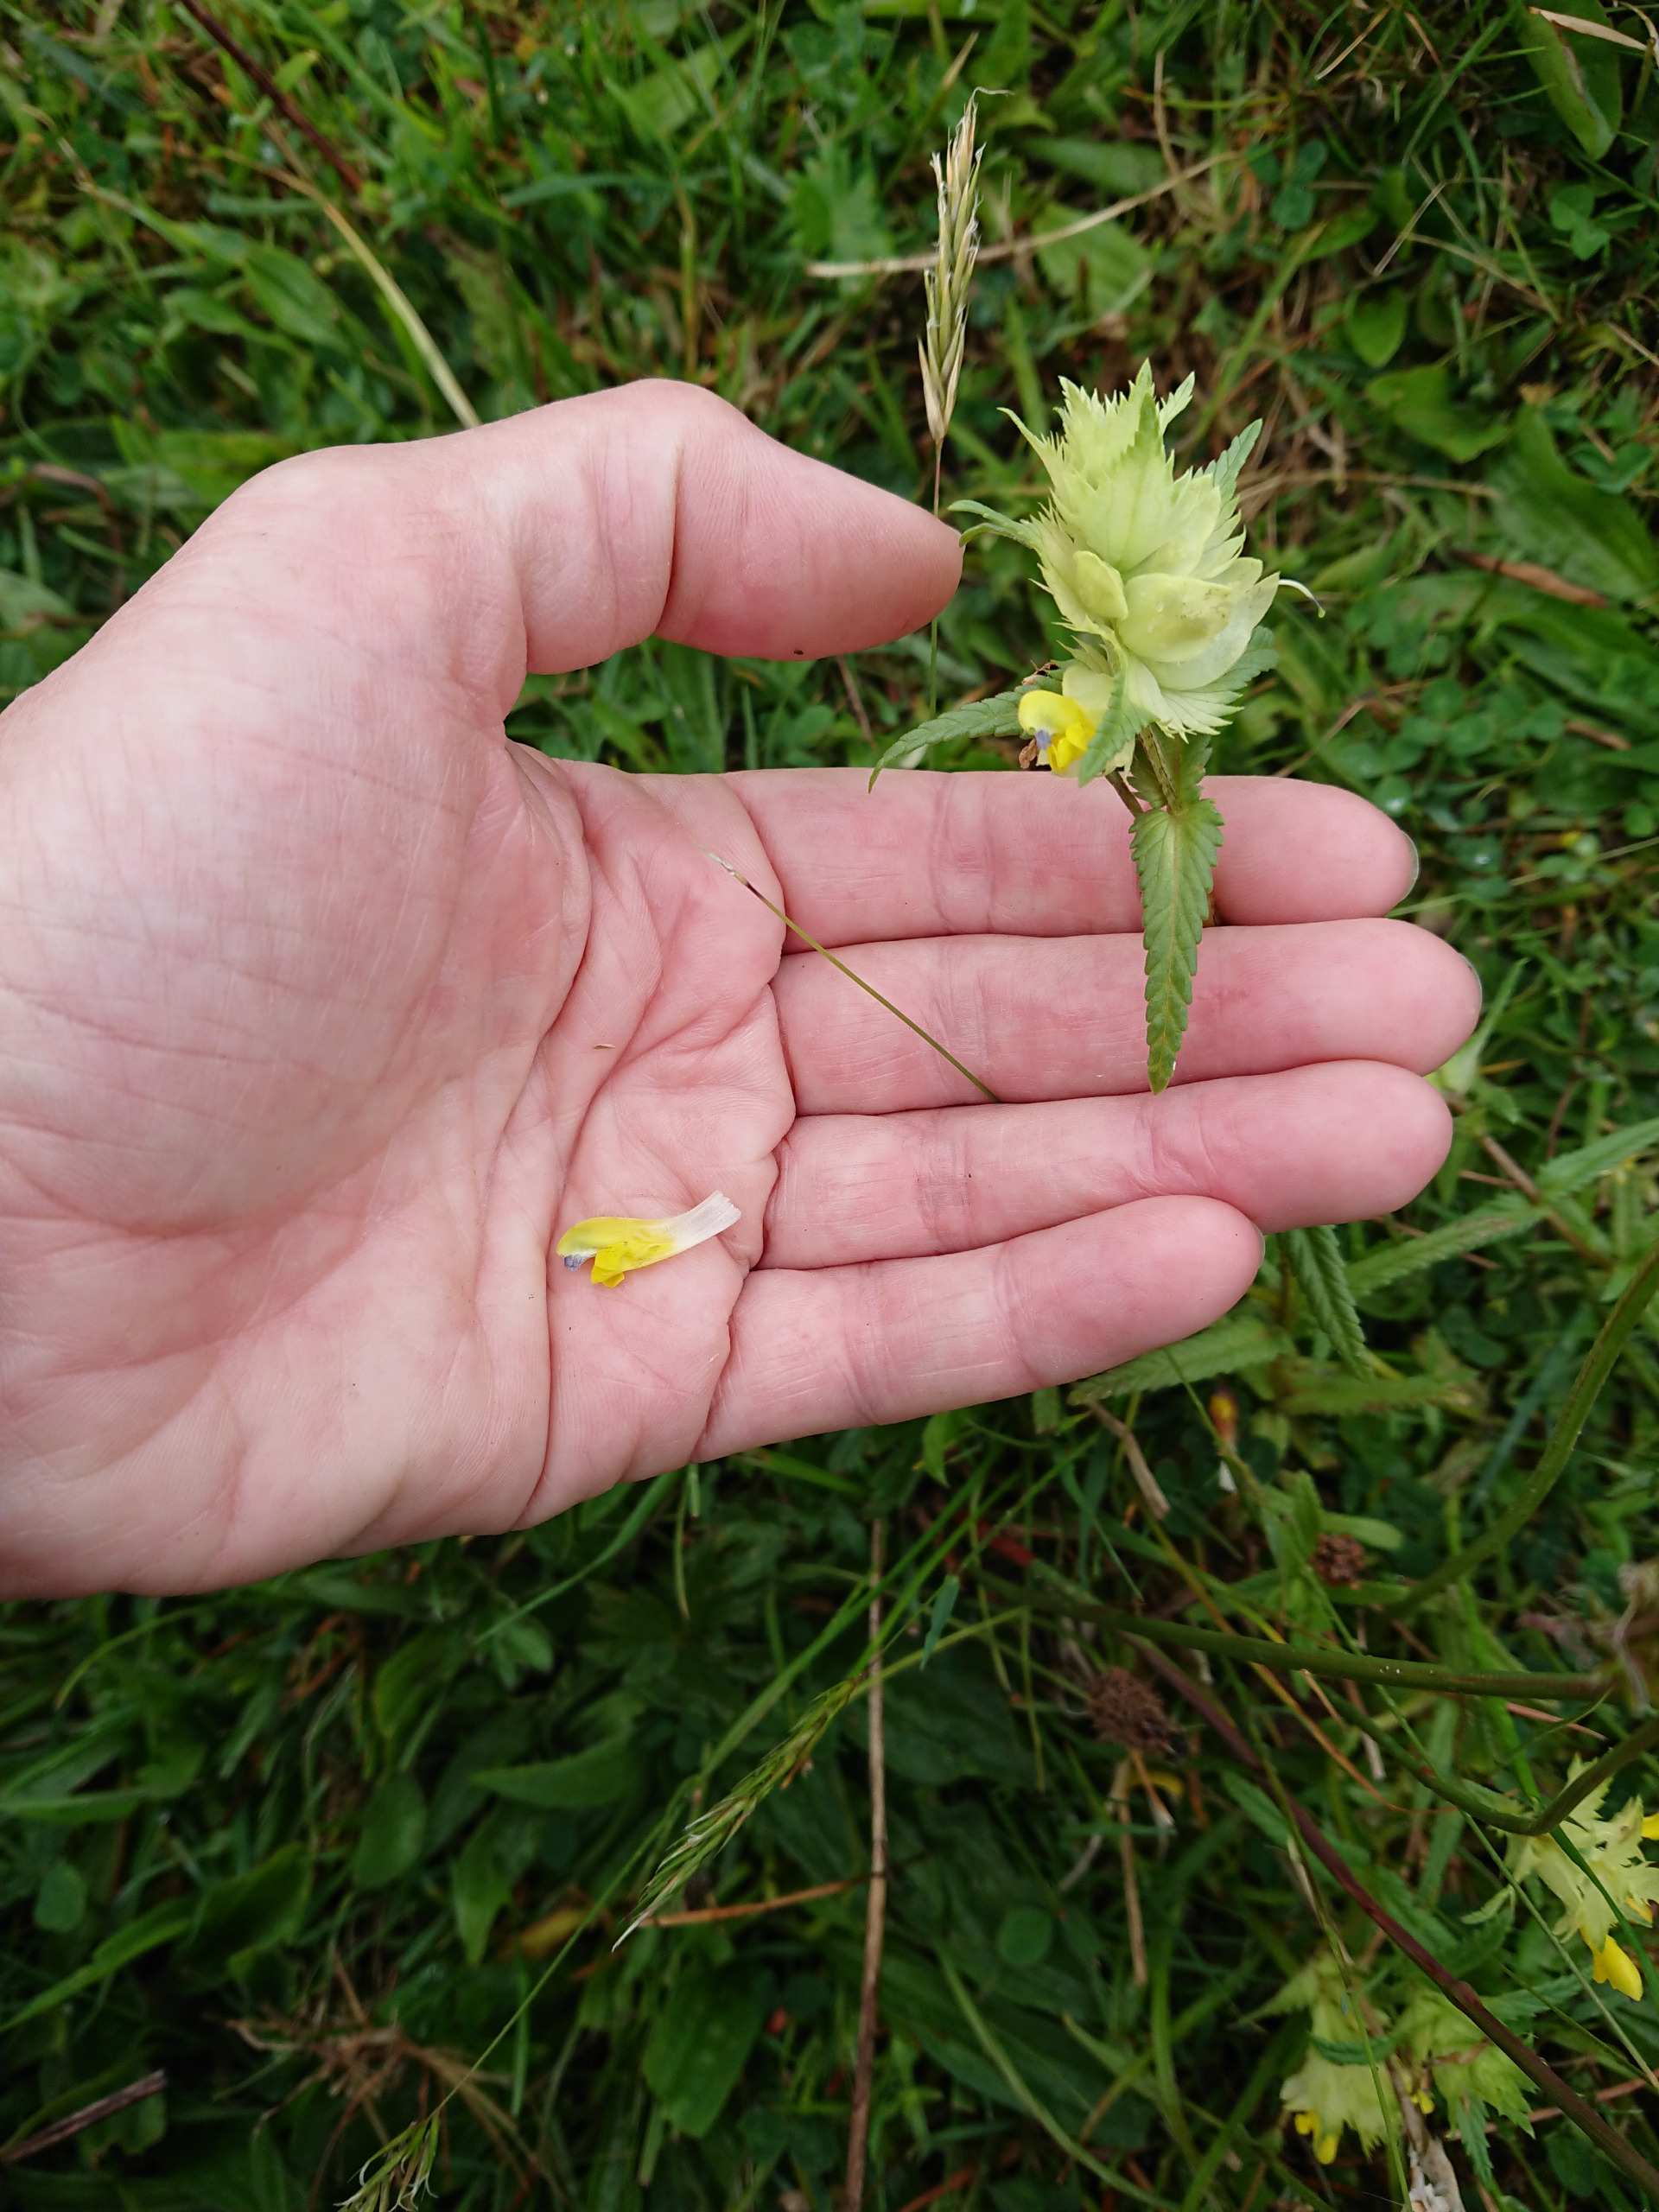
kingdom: Plantae
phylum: Tracheophyta
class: Magnoliopsida
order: Lamiales
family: Orobanchaceae
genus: Rhinanthus
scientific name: Rhinanthus
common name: Stor skjaller
